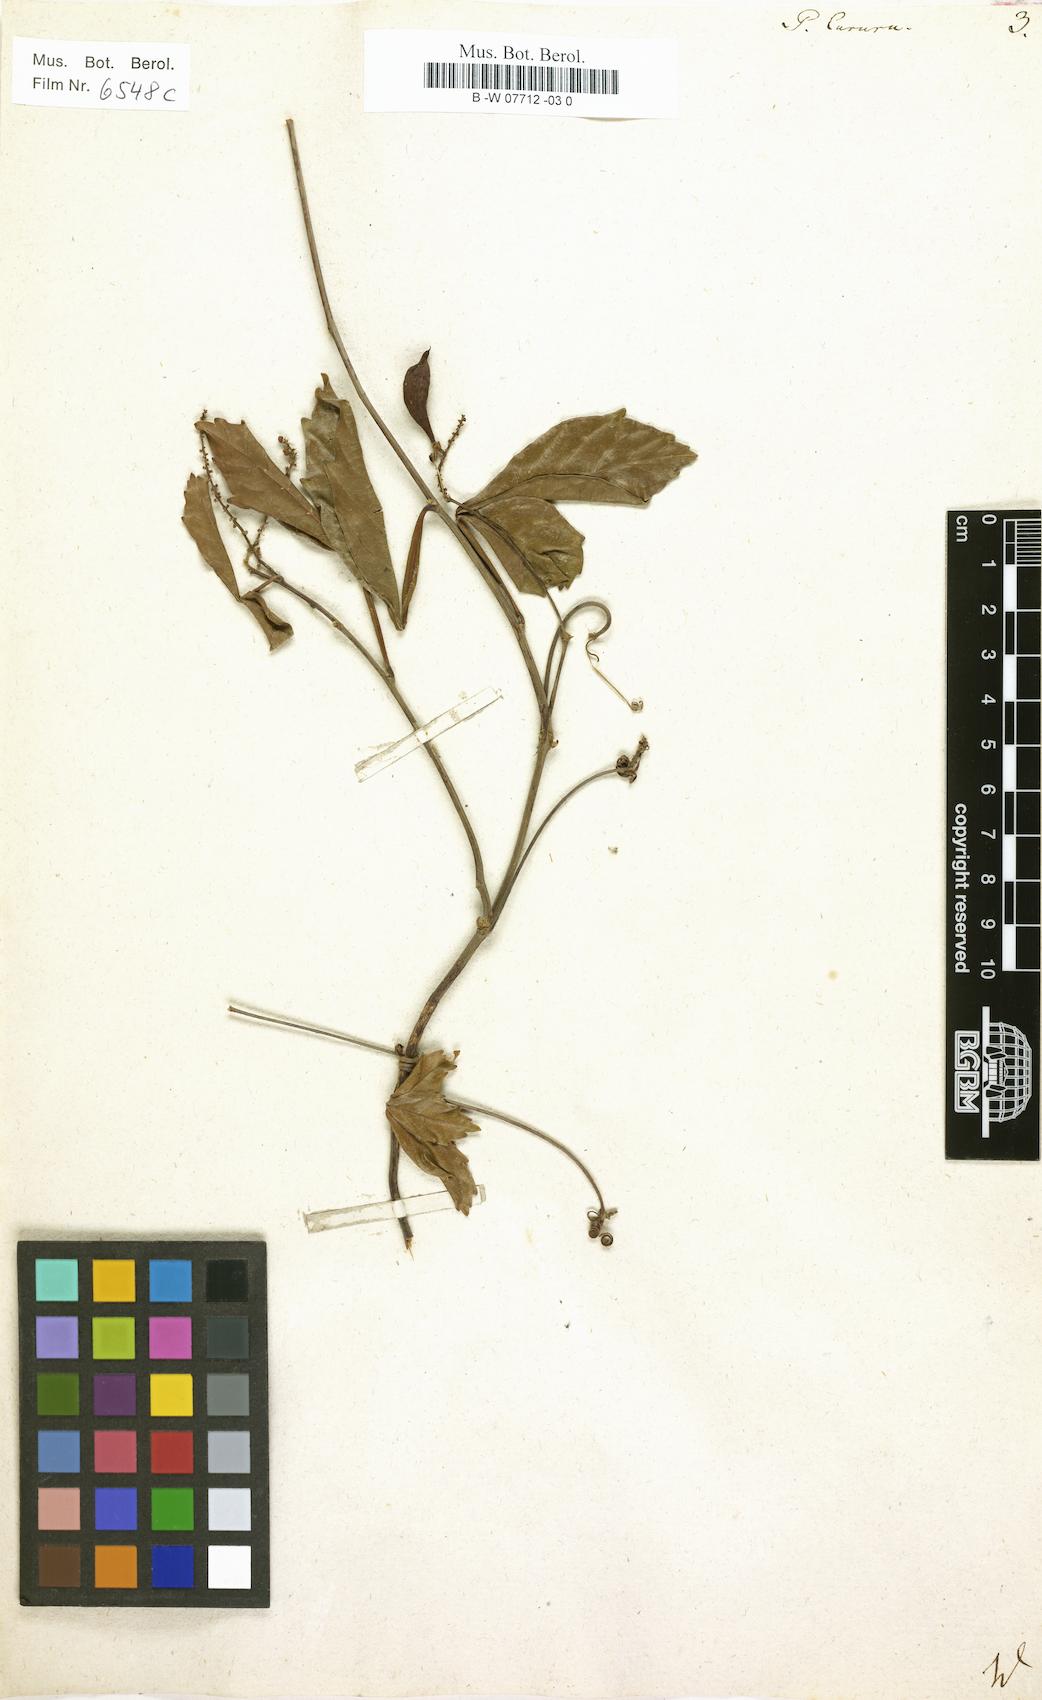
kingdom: Plantae
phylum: Tracheophyta
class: Magnoliopsida
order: Sapindales
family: Sapindaceae
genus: Paullinia
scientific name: Paullinia cururu
